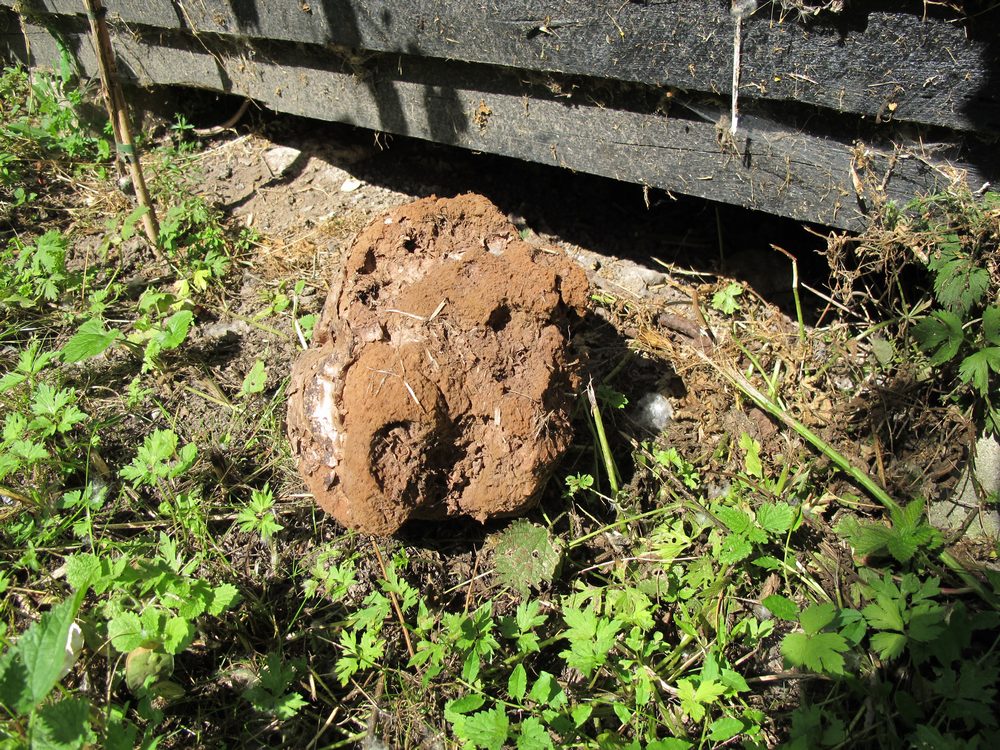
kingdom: Fungi
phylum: Basidiomycota
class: Agaricomycetes
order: Agaricales
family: Lycoperdaceae
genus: Calvatia
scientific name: Calvatia gigantea
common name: kæmpestøvbold
